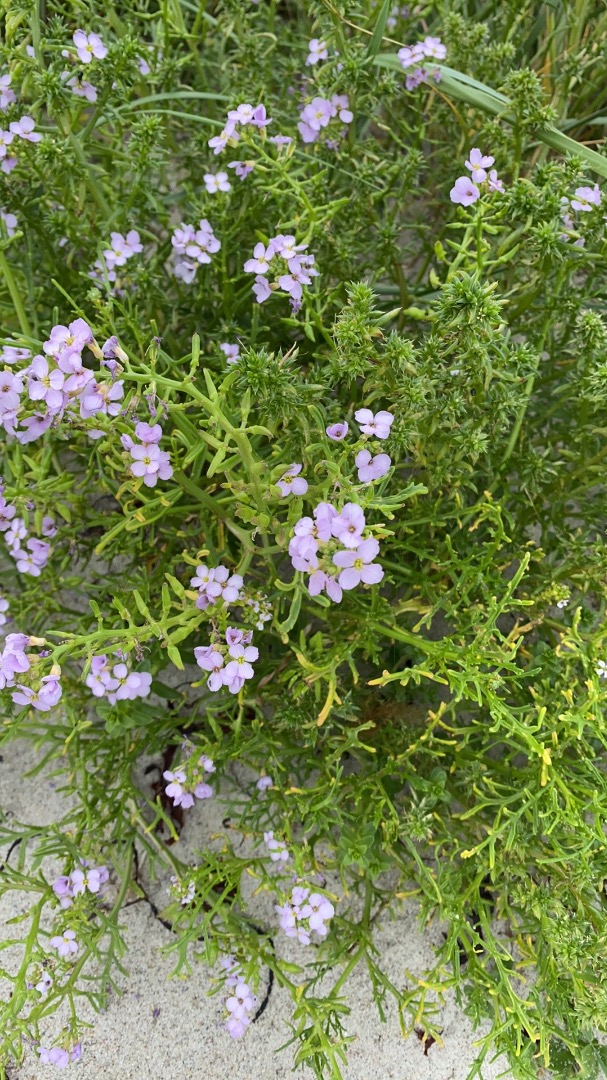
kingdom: Plantae
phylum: Tracheophyta
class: Magnoliopsida
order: Brassicales
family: Brassicaceae
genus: Cakile
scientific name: Cakile maritima
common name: Strandsennep
